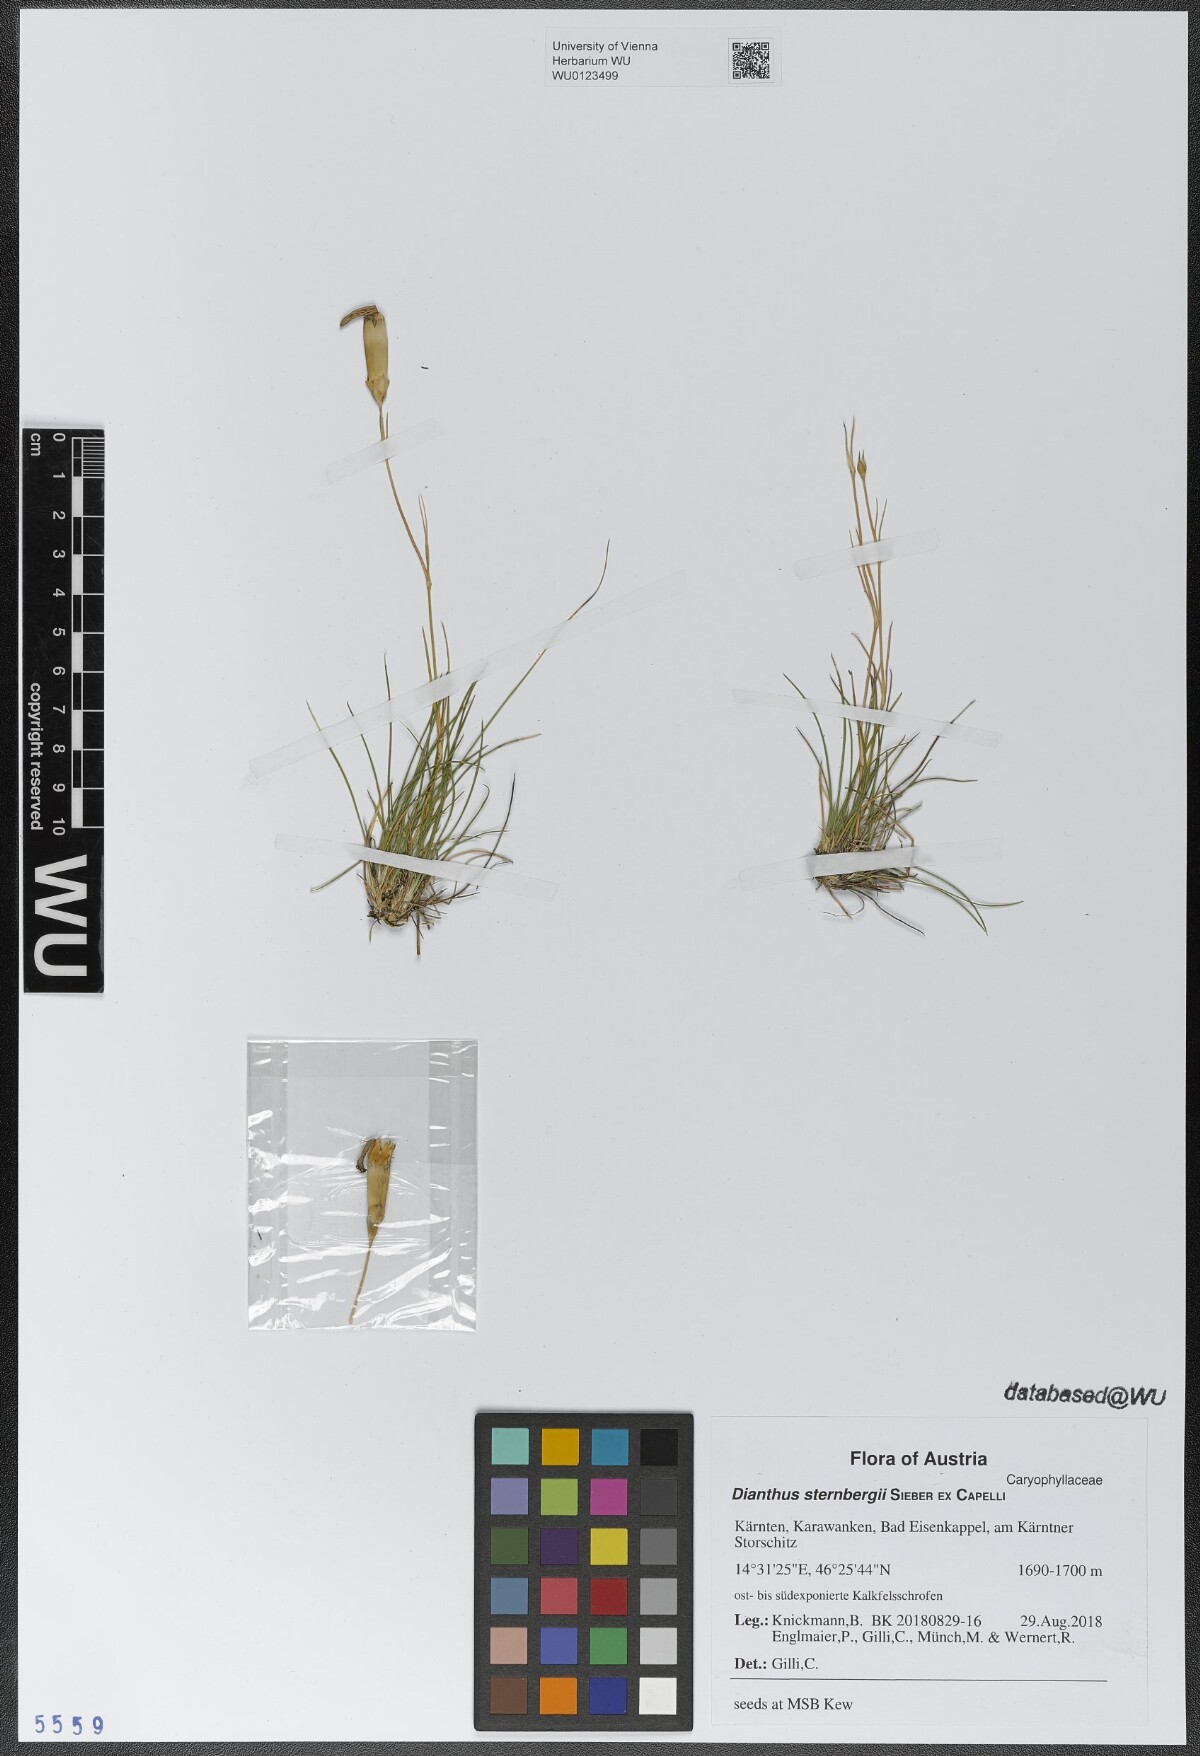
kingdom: Plantae
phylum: Tracheophyta
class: Magnoliopsida
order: Caryophyllales
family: Caryophyllaceae
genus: Dianthus
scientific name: Dianthus sternbergii
